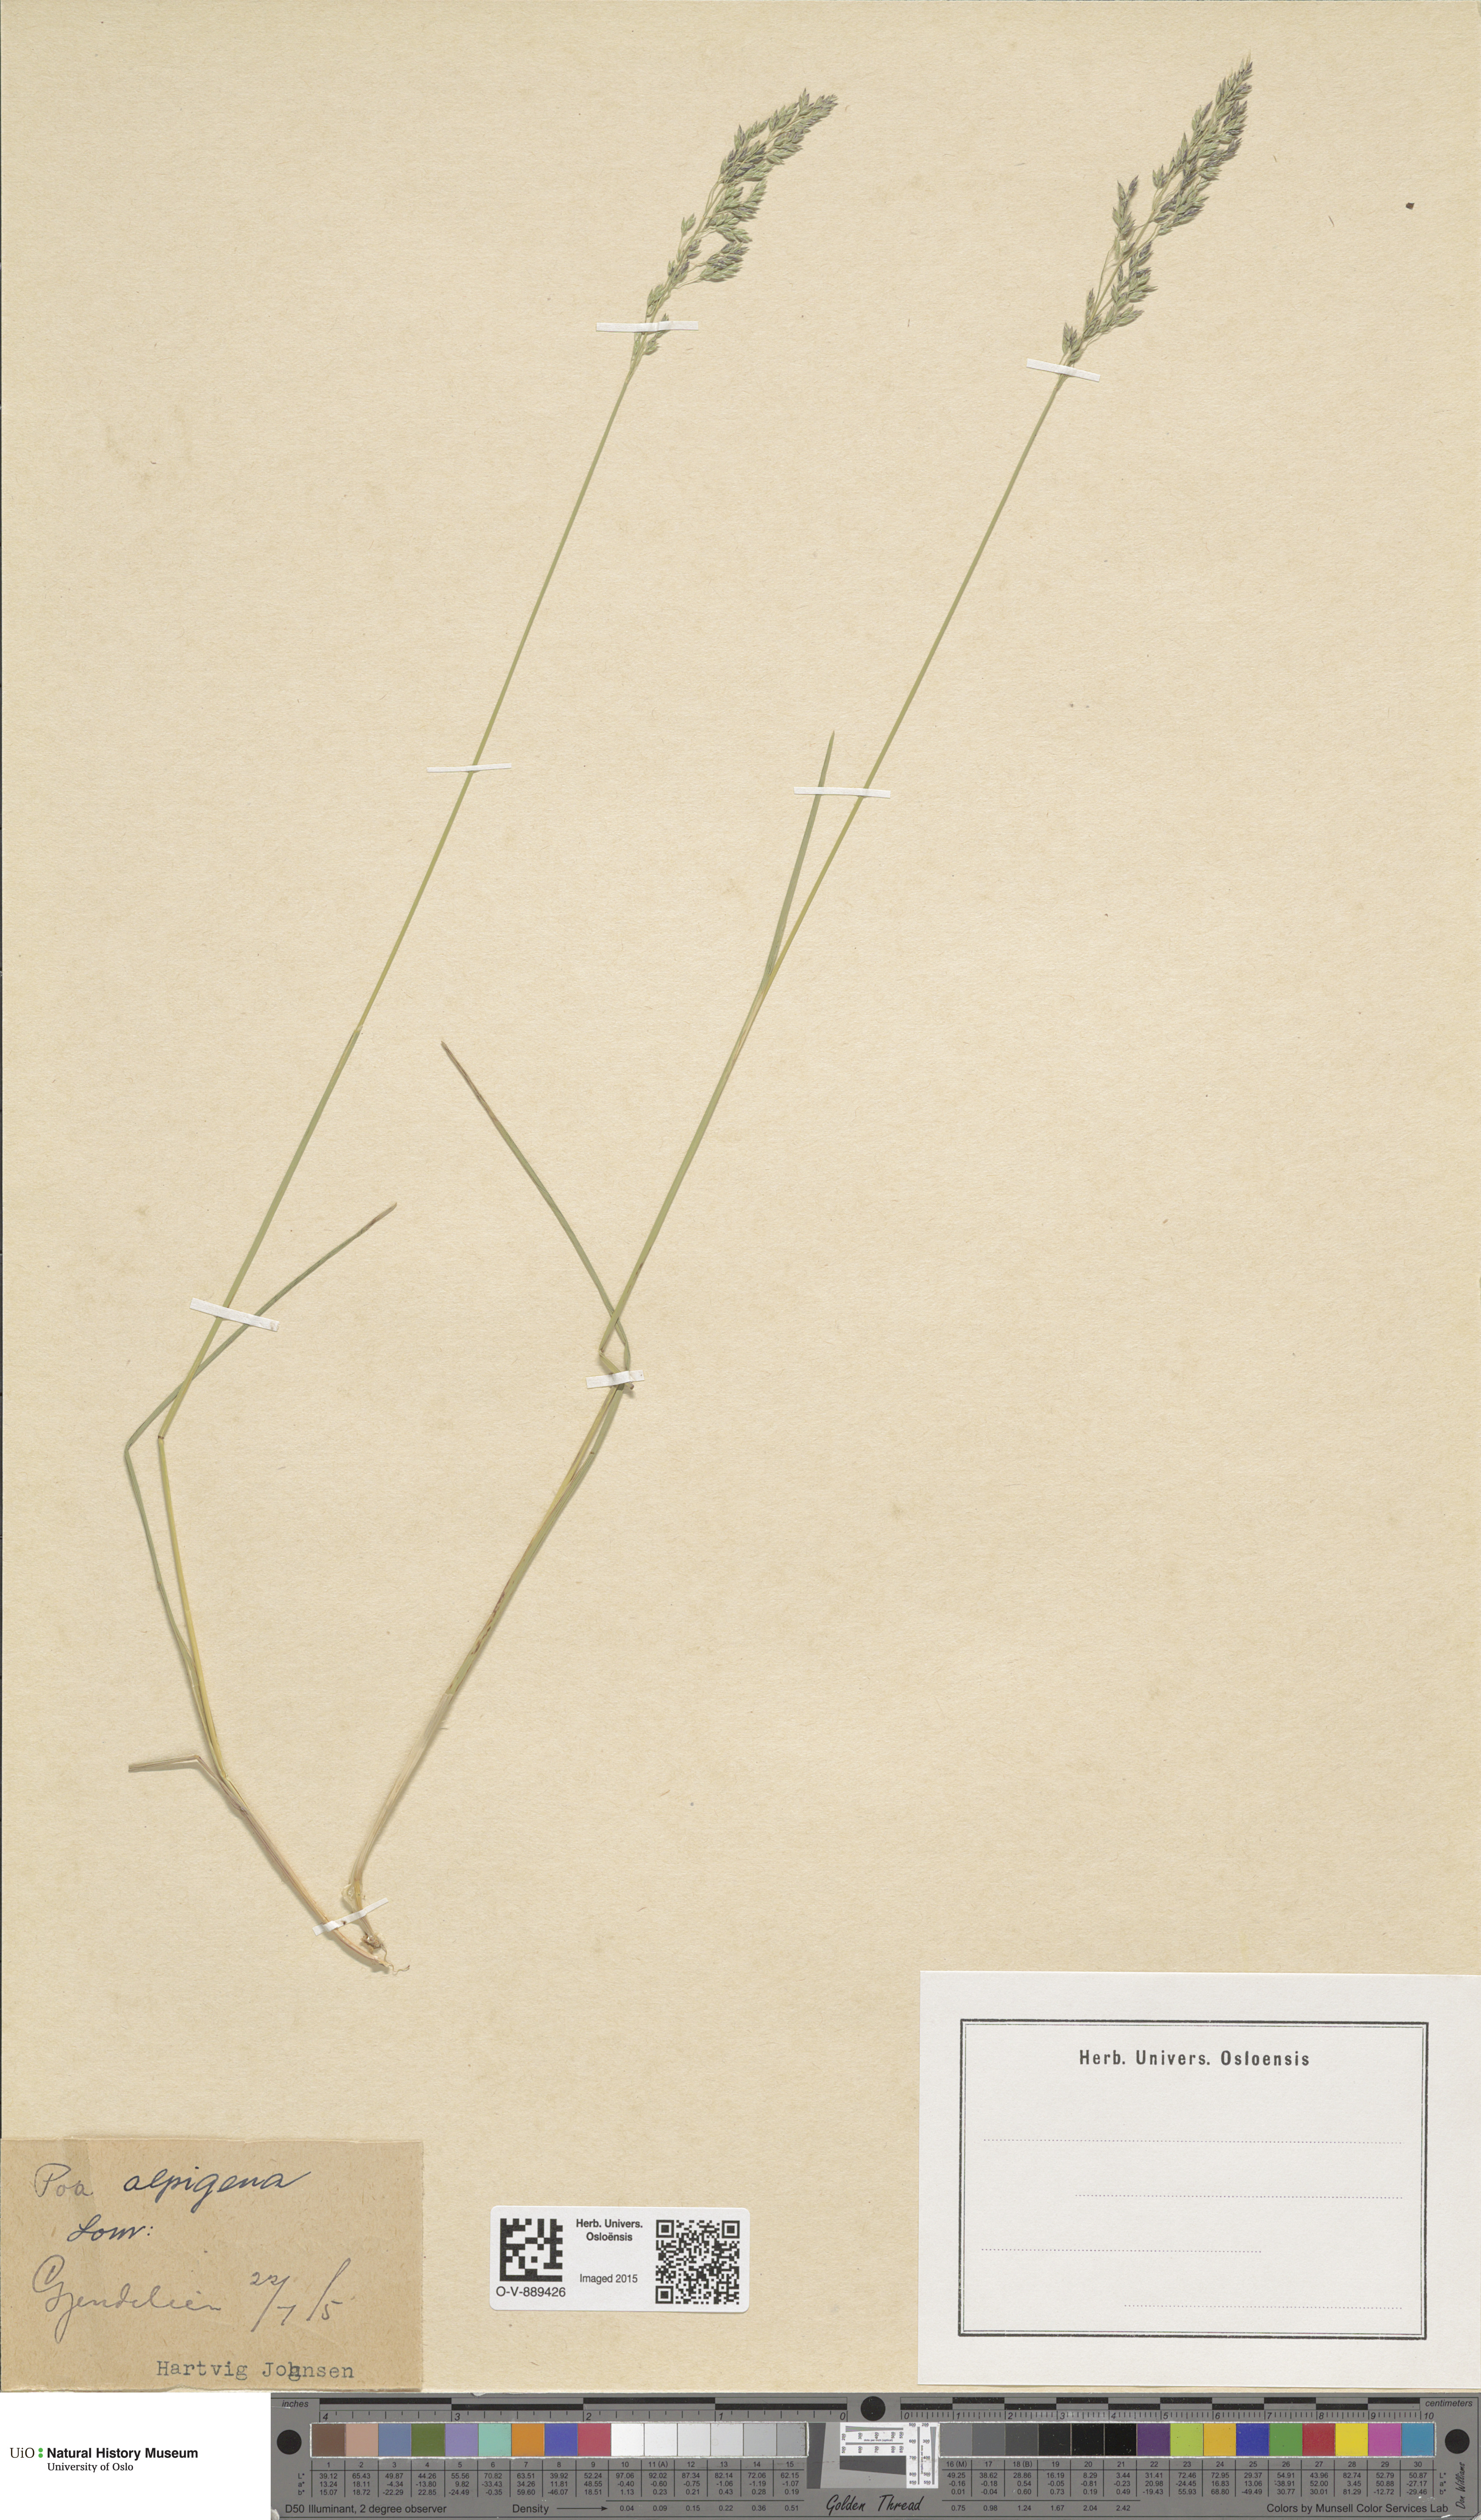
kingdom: Plantae
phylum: Tracheophyta
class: Liliopsida
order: Poales
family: Poaceae
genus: Poa
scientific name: Poa alpigena
